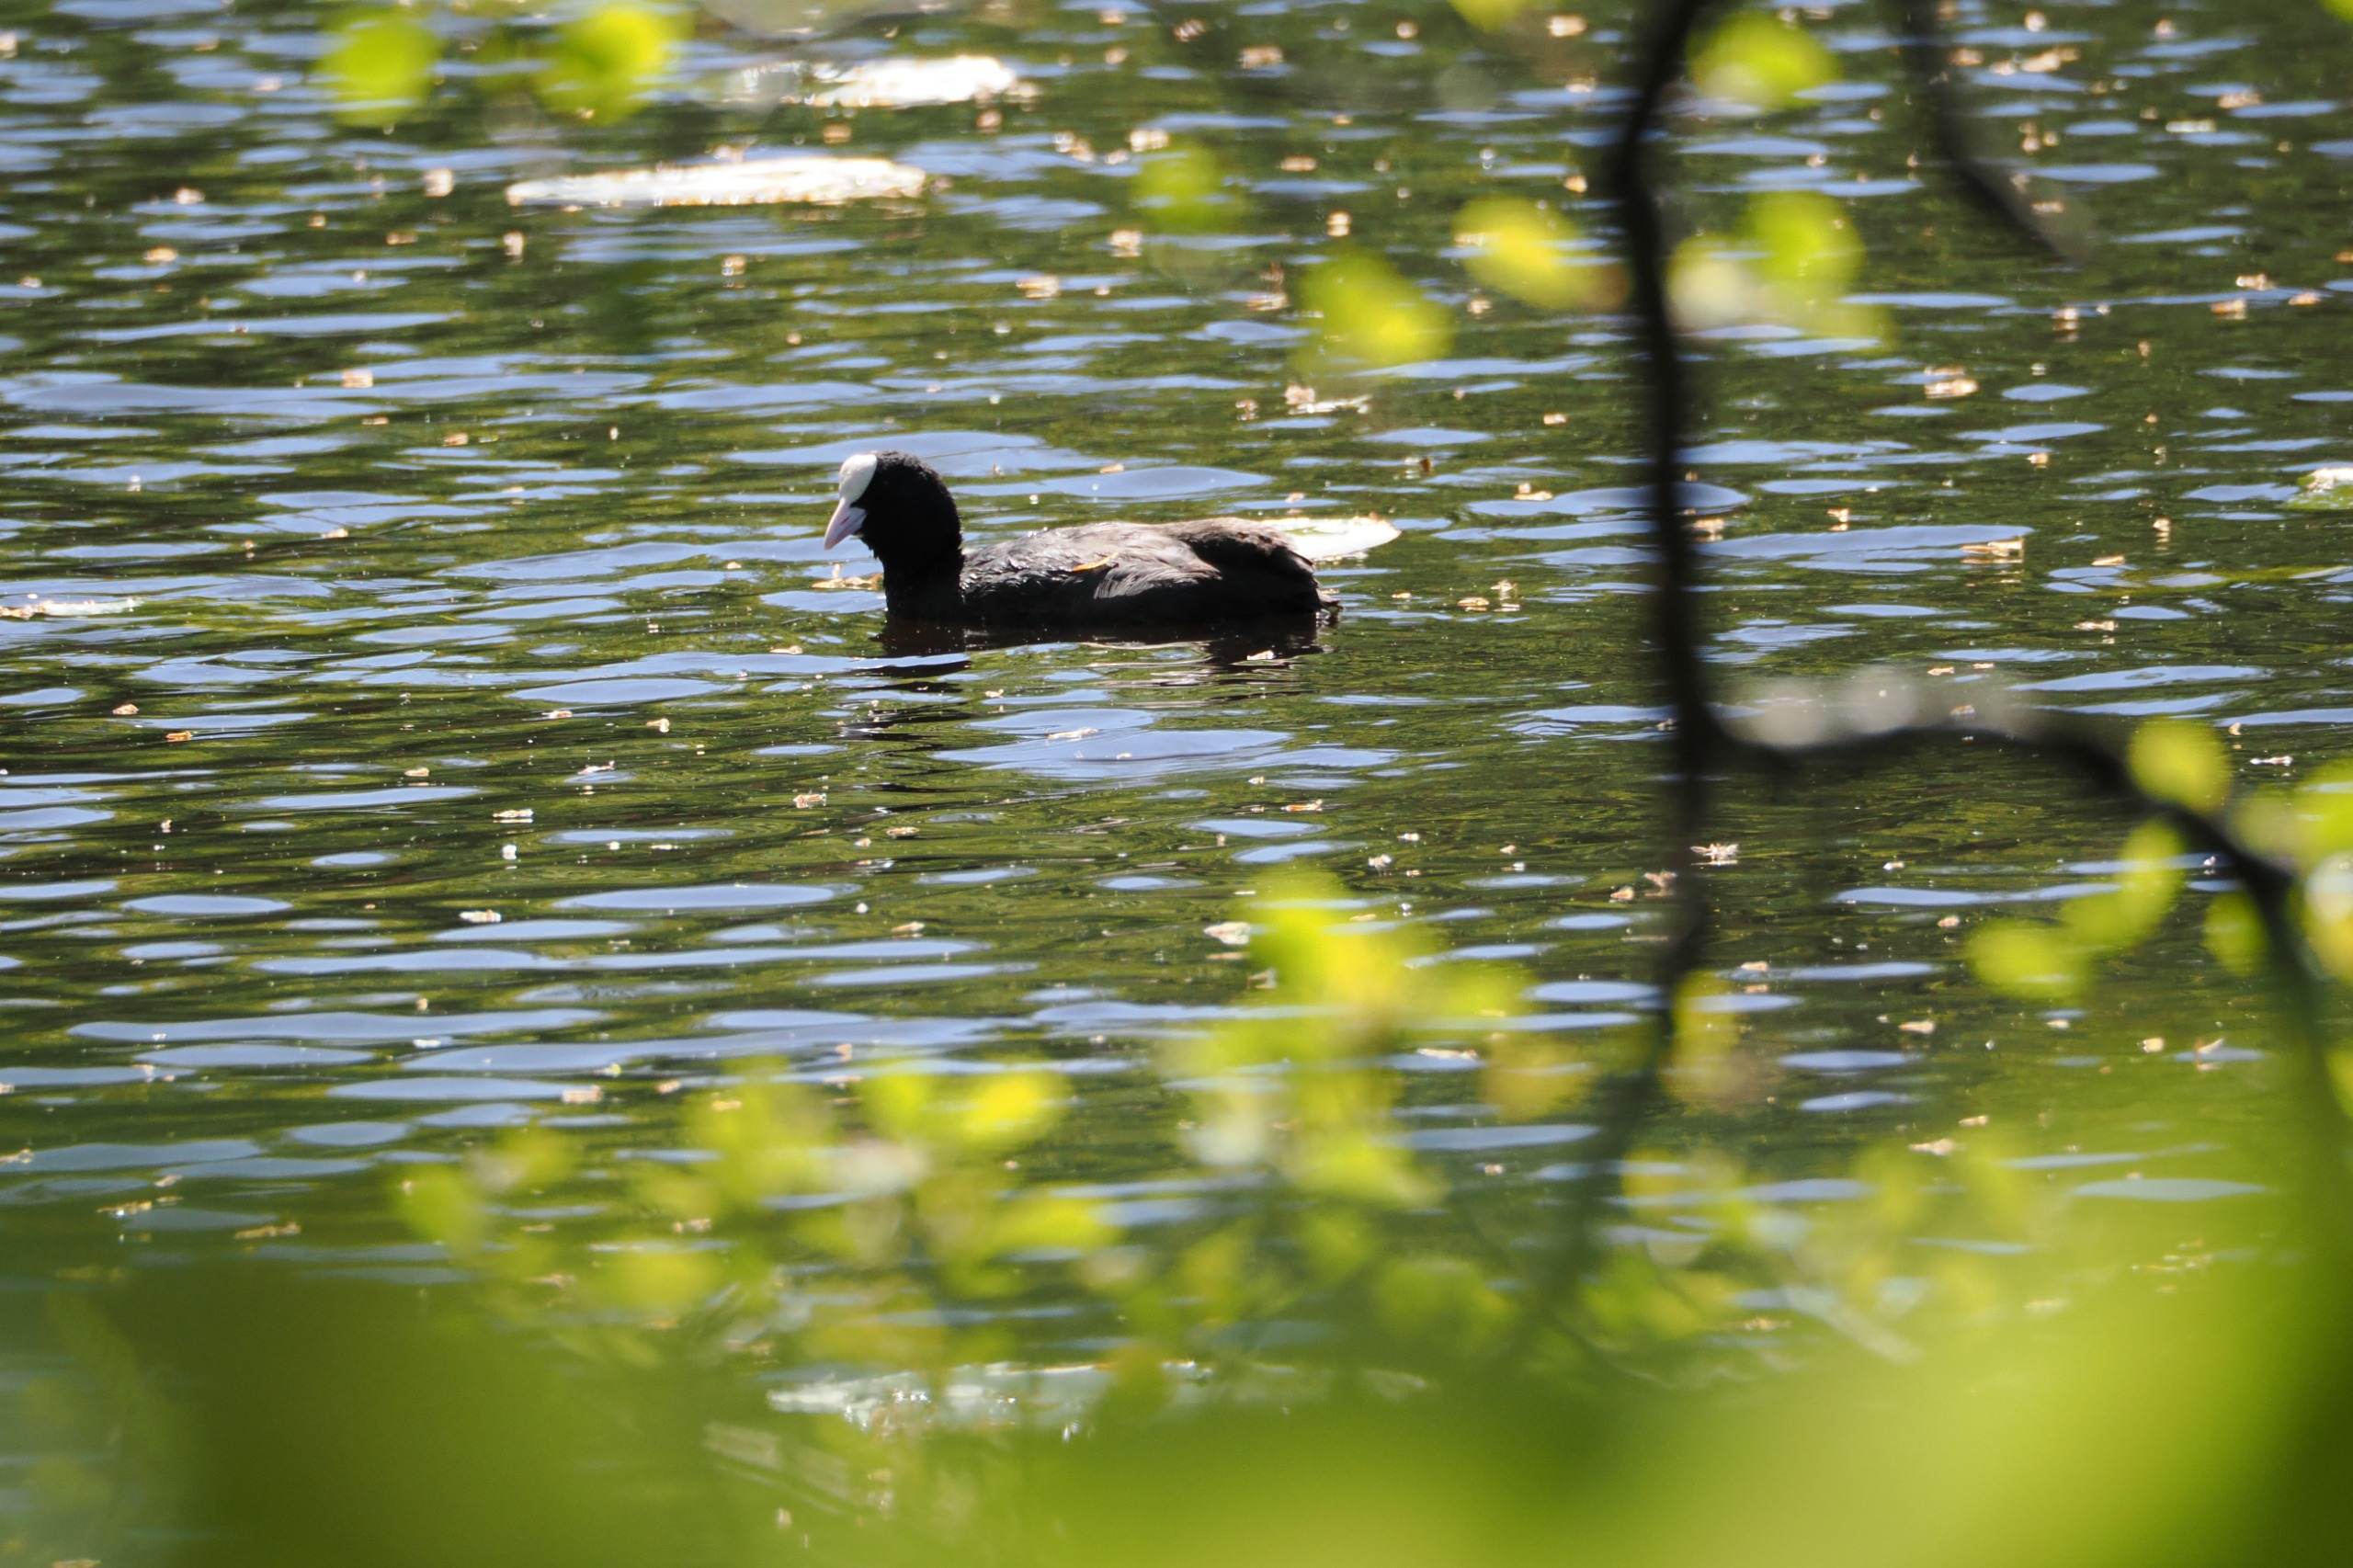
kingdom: Animalia
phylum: Chordata
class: Aves
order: Gruiformes
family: Rallidae
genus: Fulica
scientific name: Fulica atra
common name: Blishøne
